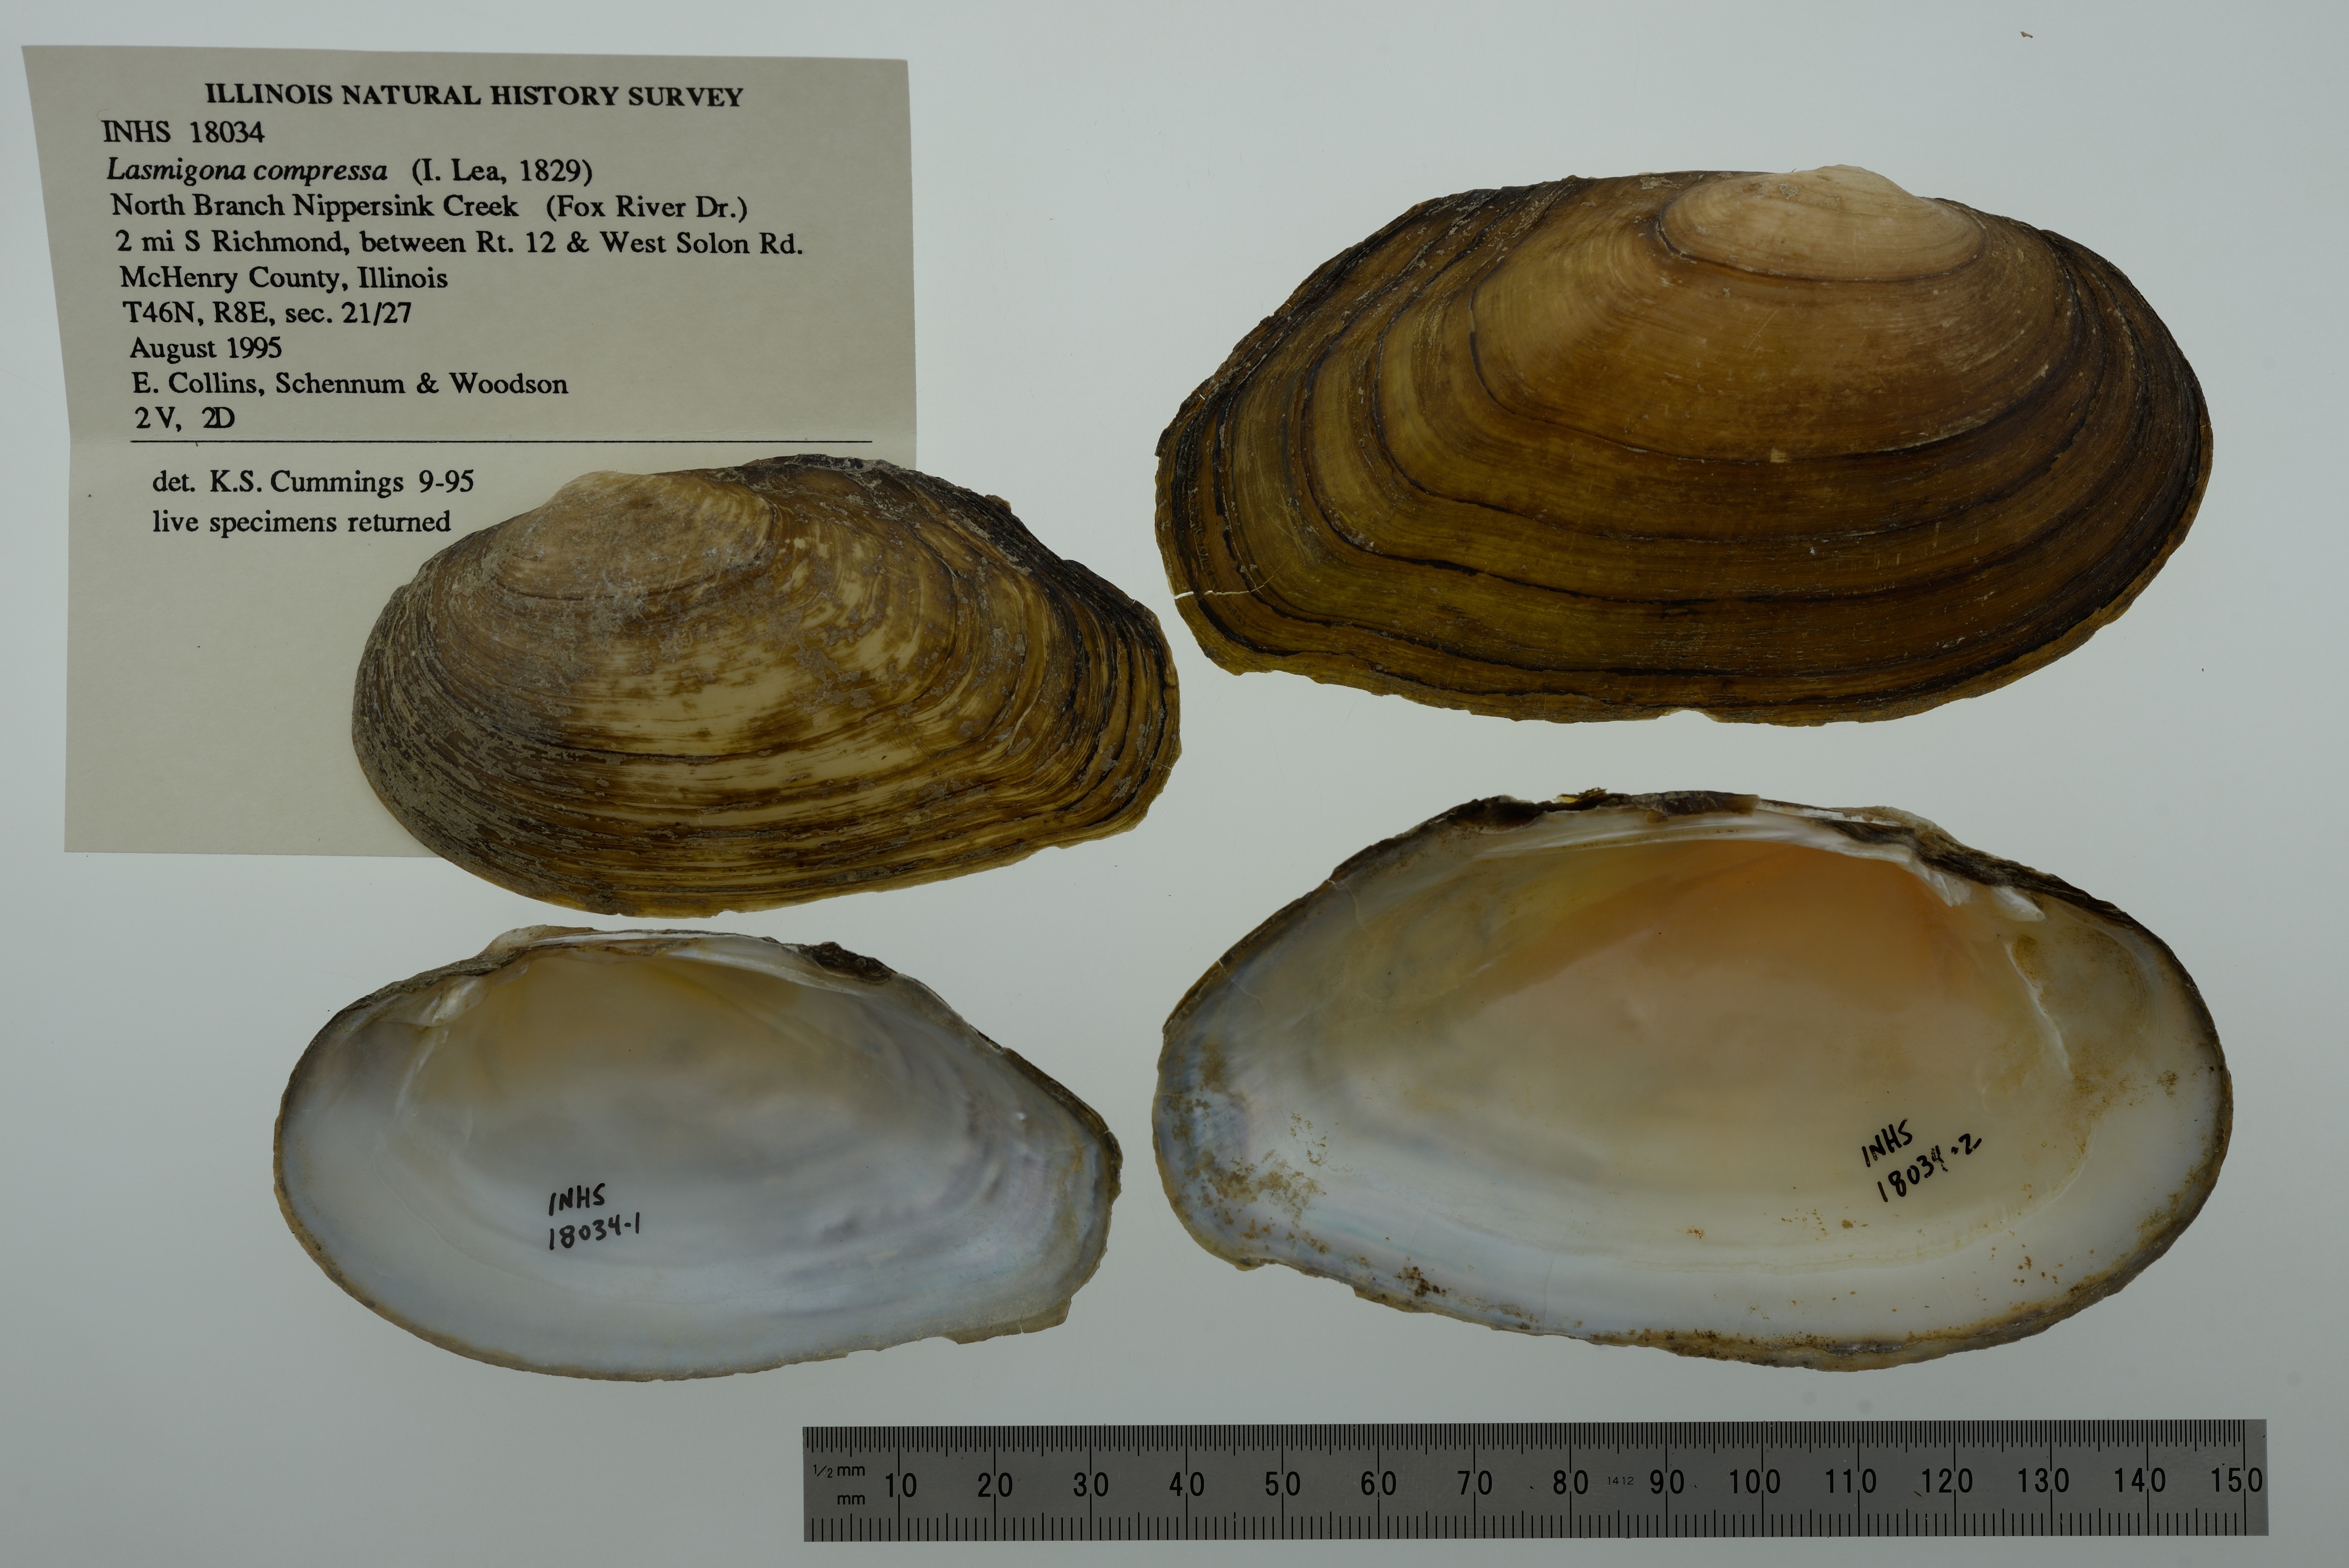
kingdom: Animalia
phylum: Mollusca
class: Bivalvia
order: Unionida
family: Unionidae
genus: Lasmigona
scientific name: Lasmigona compressa
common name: Creek heelsplitter
